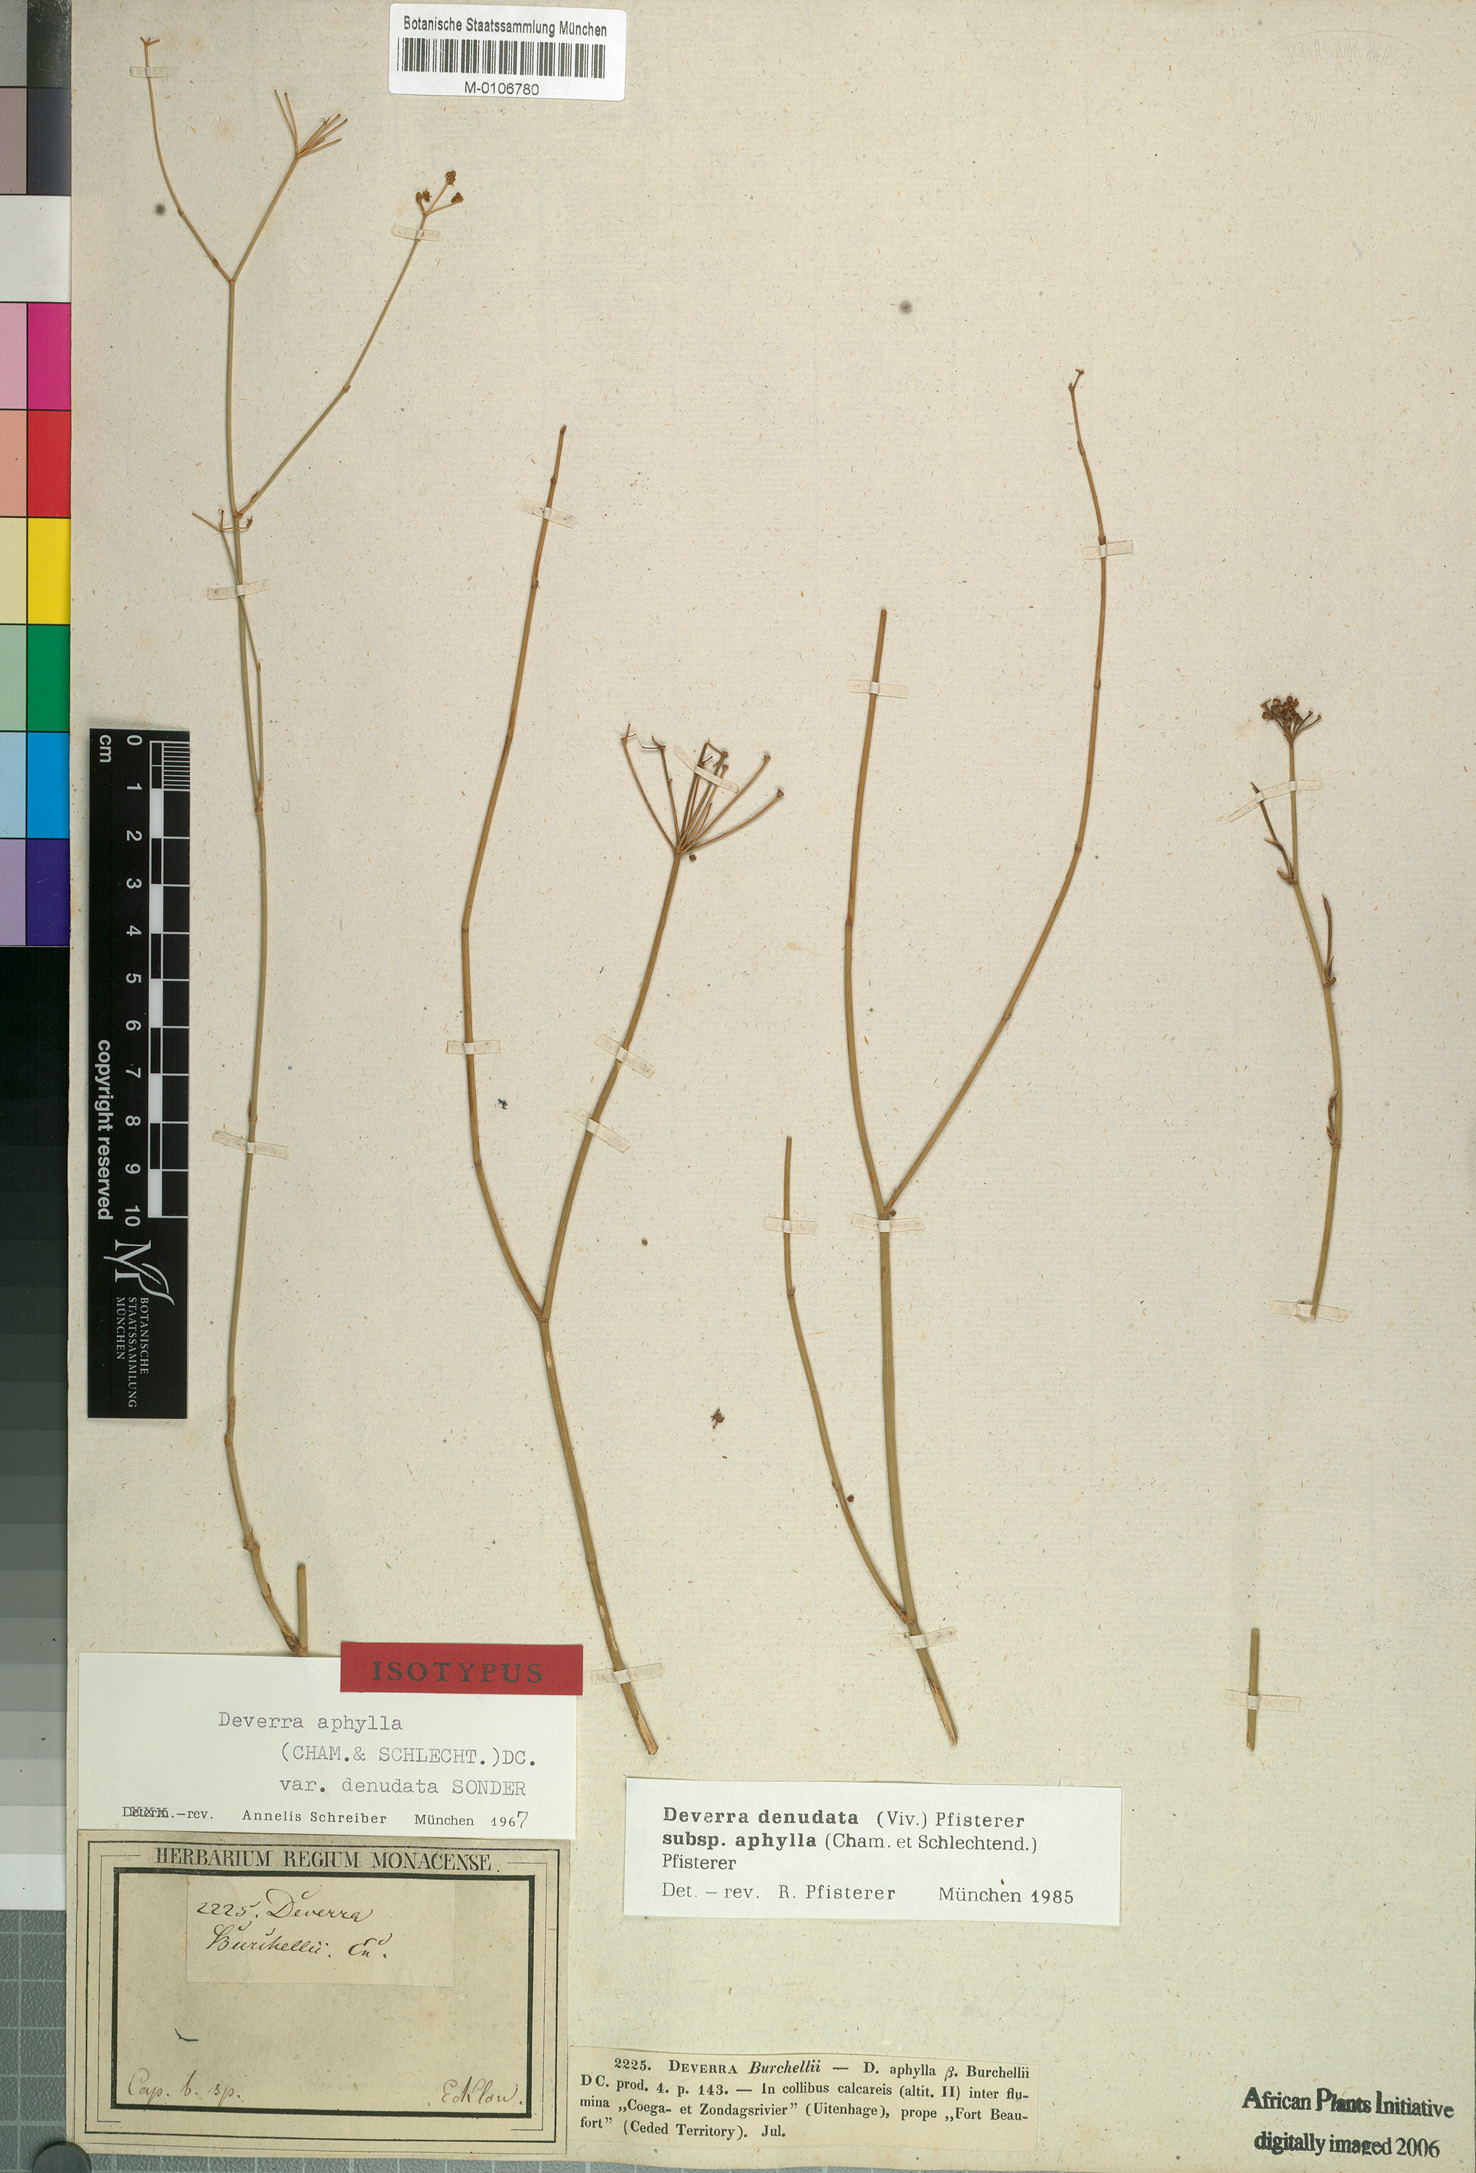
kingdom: Plantae
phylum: Tracheophyta
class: Magnoliopsida
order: Apiales
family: Apiaceae
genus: Deverra
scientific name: Deverra aphylla
